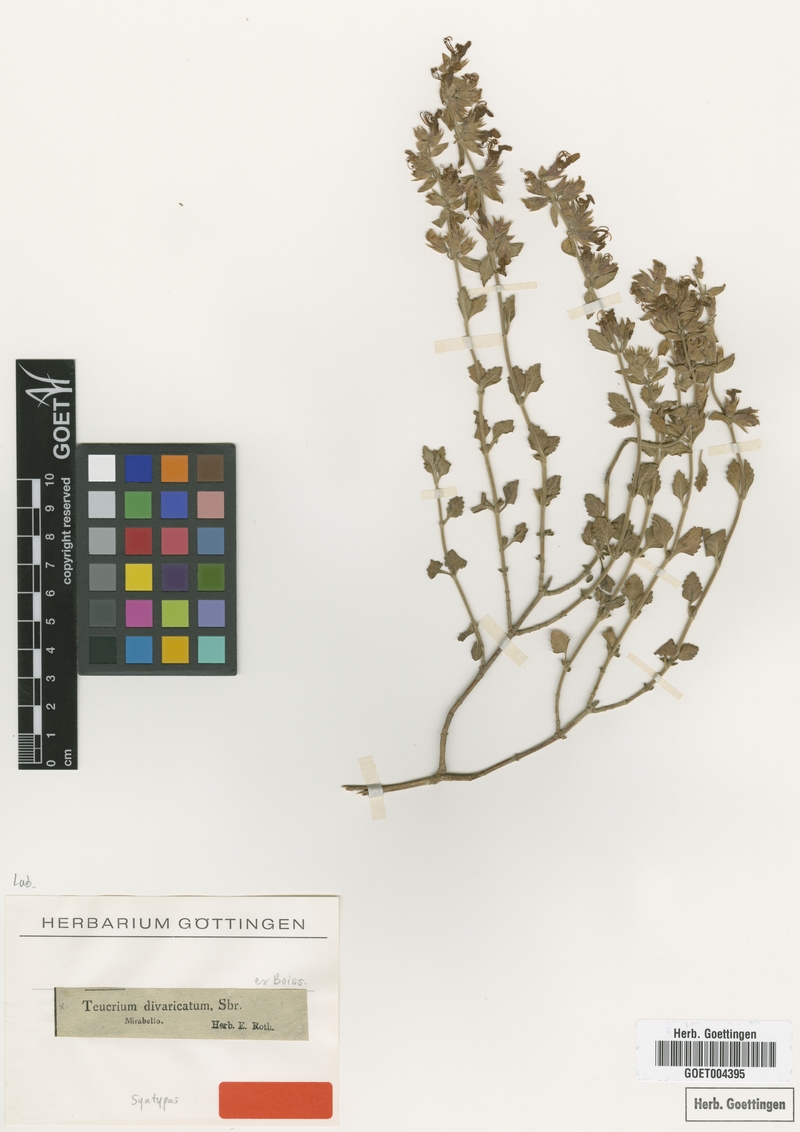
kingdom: Plantae
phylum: Tracheophyta
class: Magnoliopsida
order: Lamiales
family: Lamiaceae
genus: Teucrium
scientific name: Teucrium divaricatum
